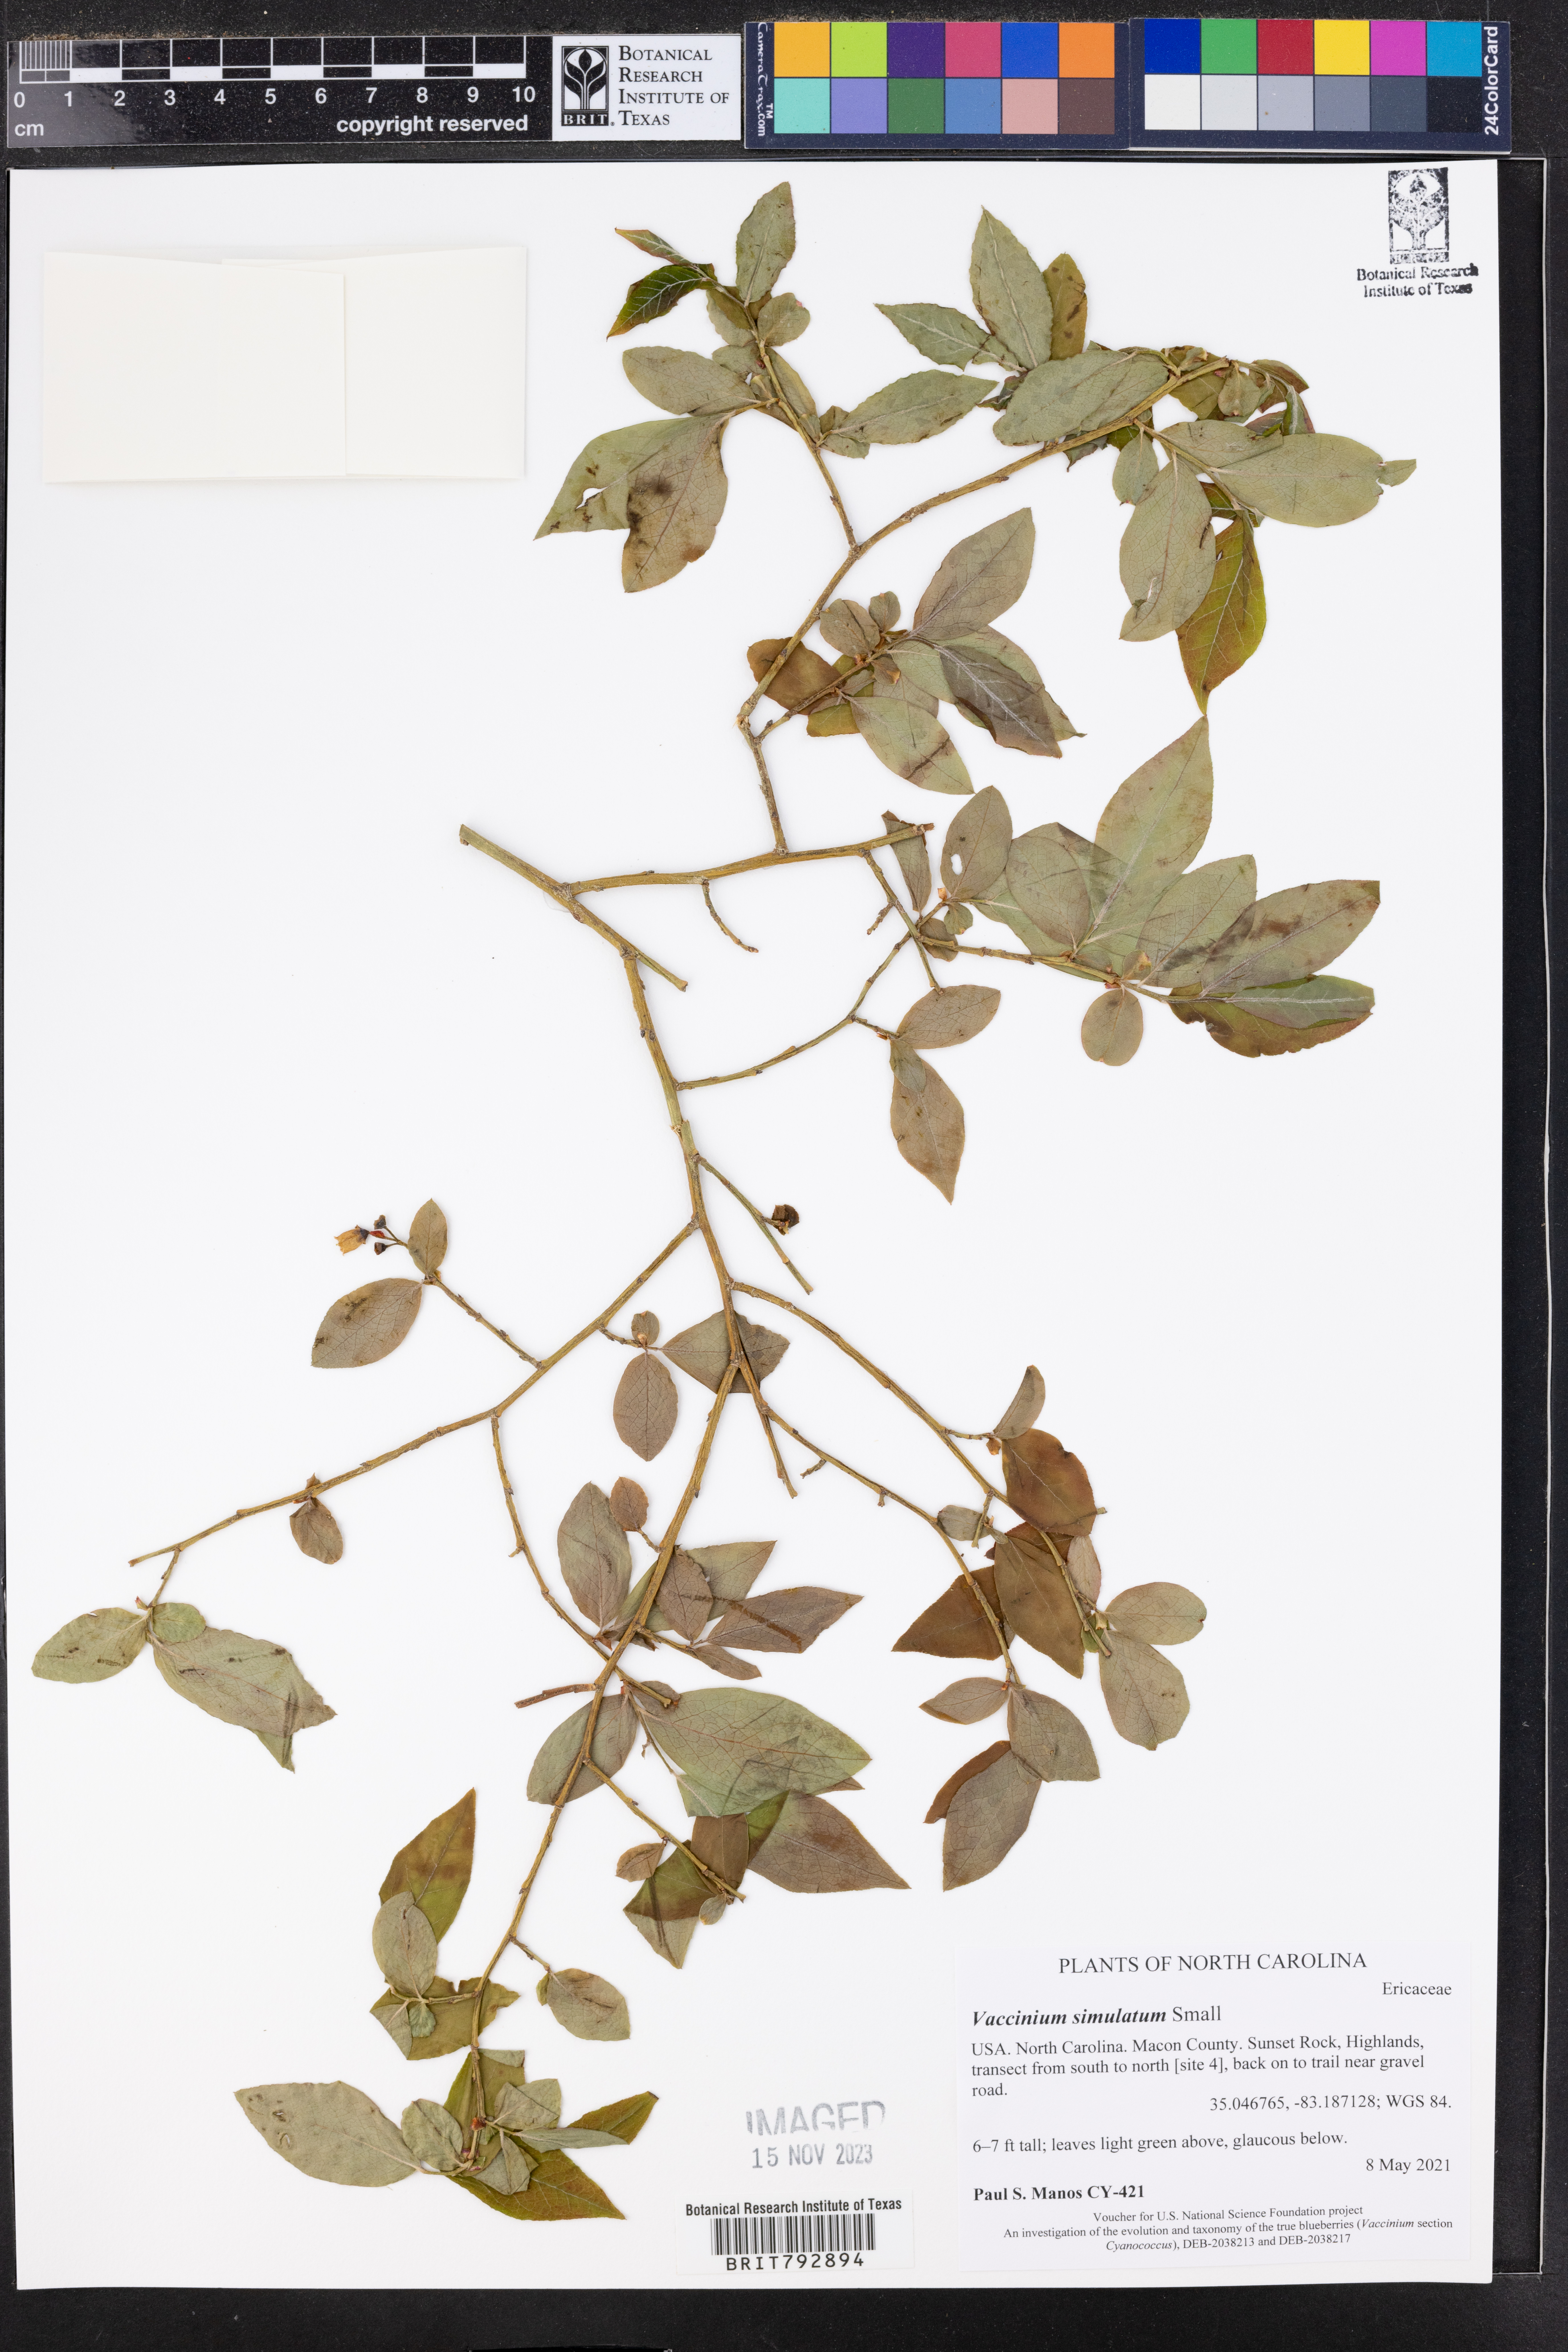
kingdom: Plantae
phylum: Tracheophyta
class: Magnoliopsida
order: Ericales
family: Ericaceae
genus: Vaccinium
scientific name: Vaccinium corymbosum
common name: Blueberry
